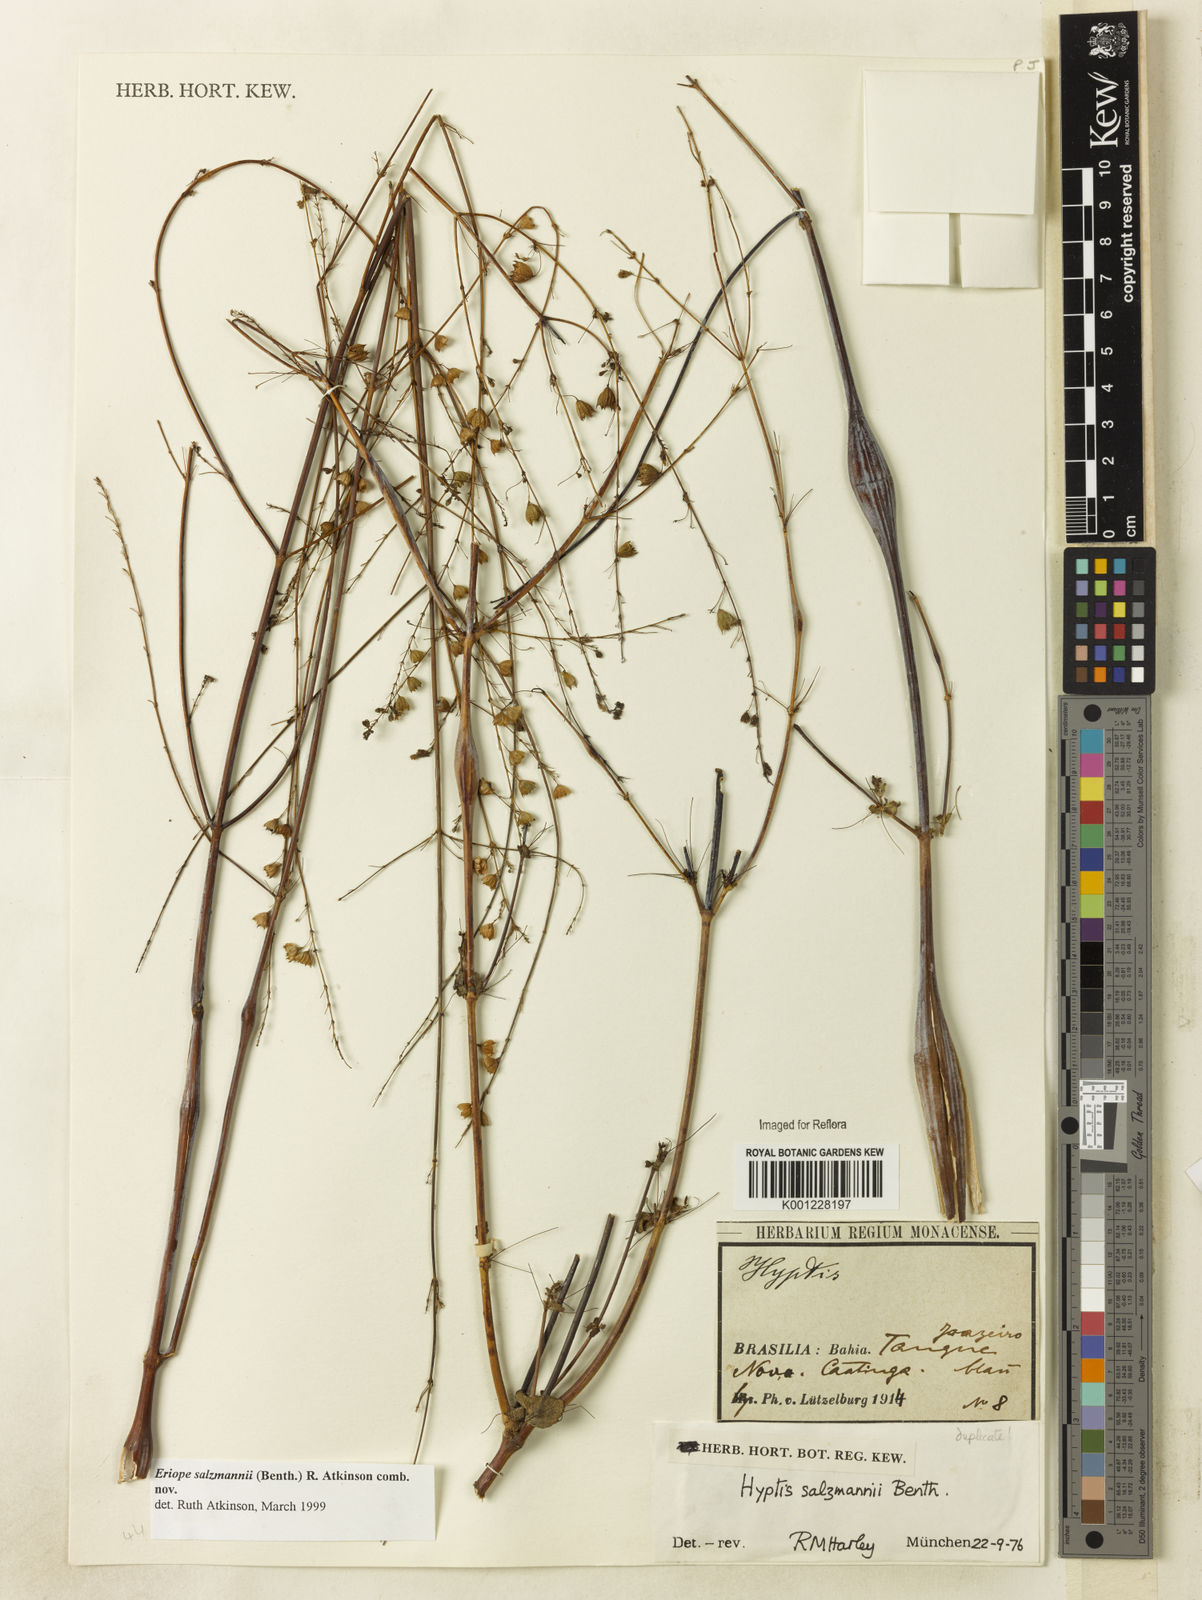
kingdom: Plantae
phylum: Tracheophyta
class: Magnoliopsida
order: Lamiales
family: Lamiaceae
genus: Hypenia
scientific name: Hypenia salzmannii
